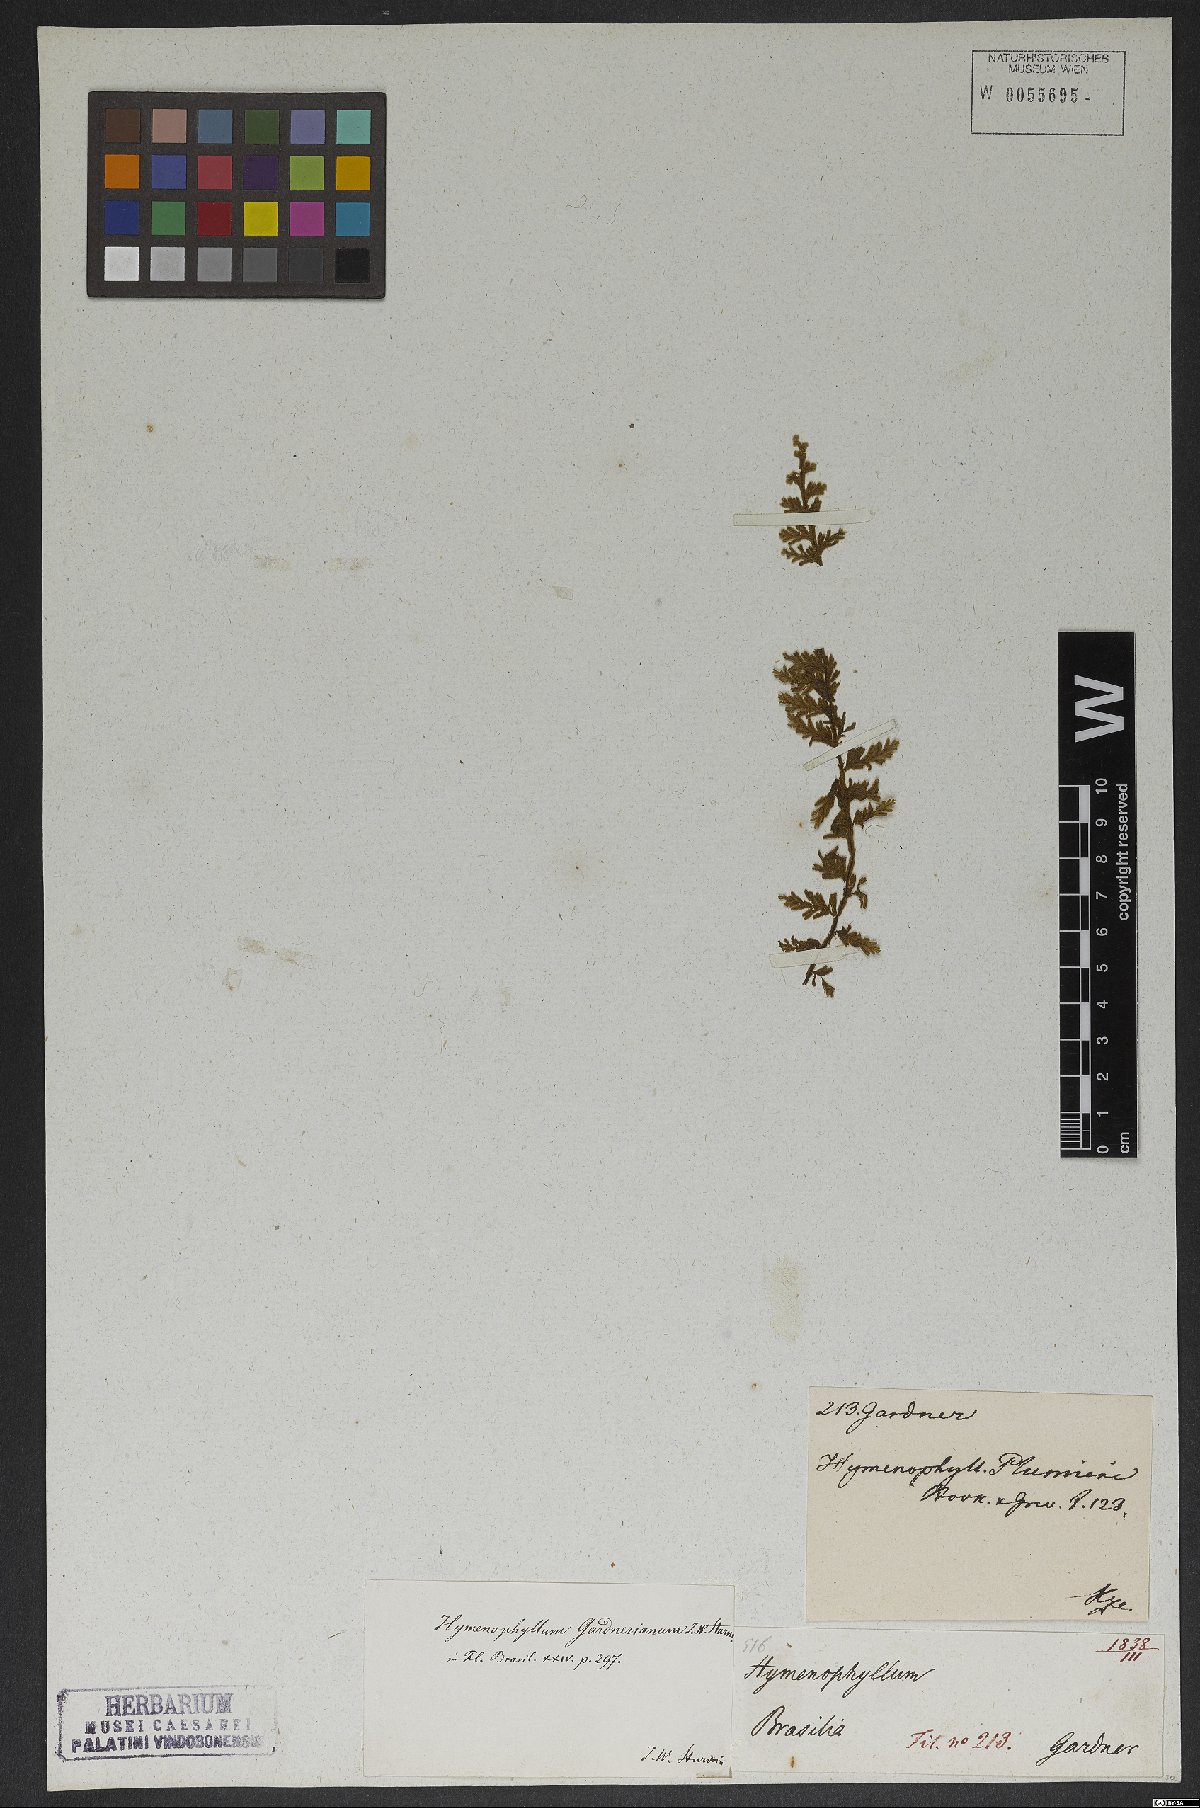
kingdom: Plantae
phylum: Tracheophyta
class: Polypodiopsida
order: Hymenophyllales
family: Hymenophyllaceae
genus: Hymenophyllum
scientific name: Hymenophyllum asplenioides
